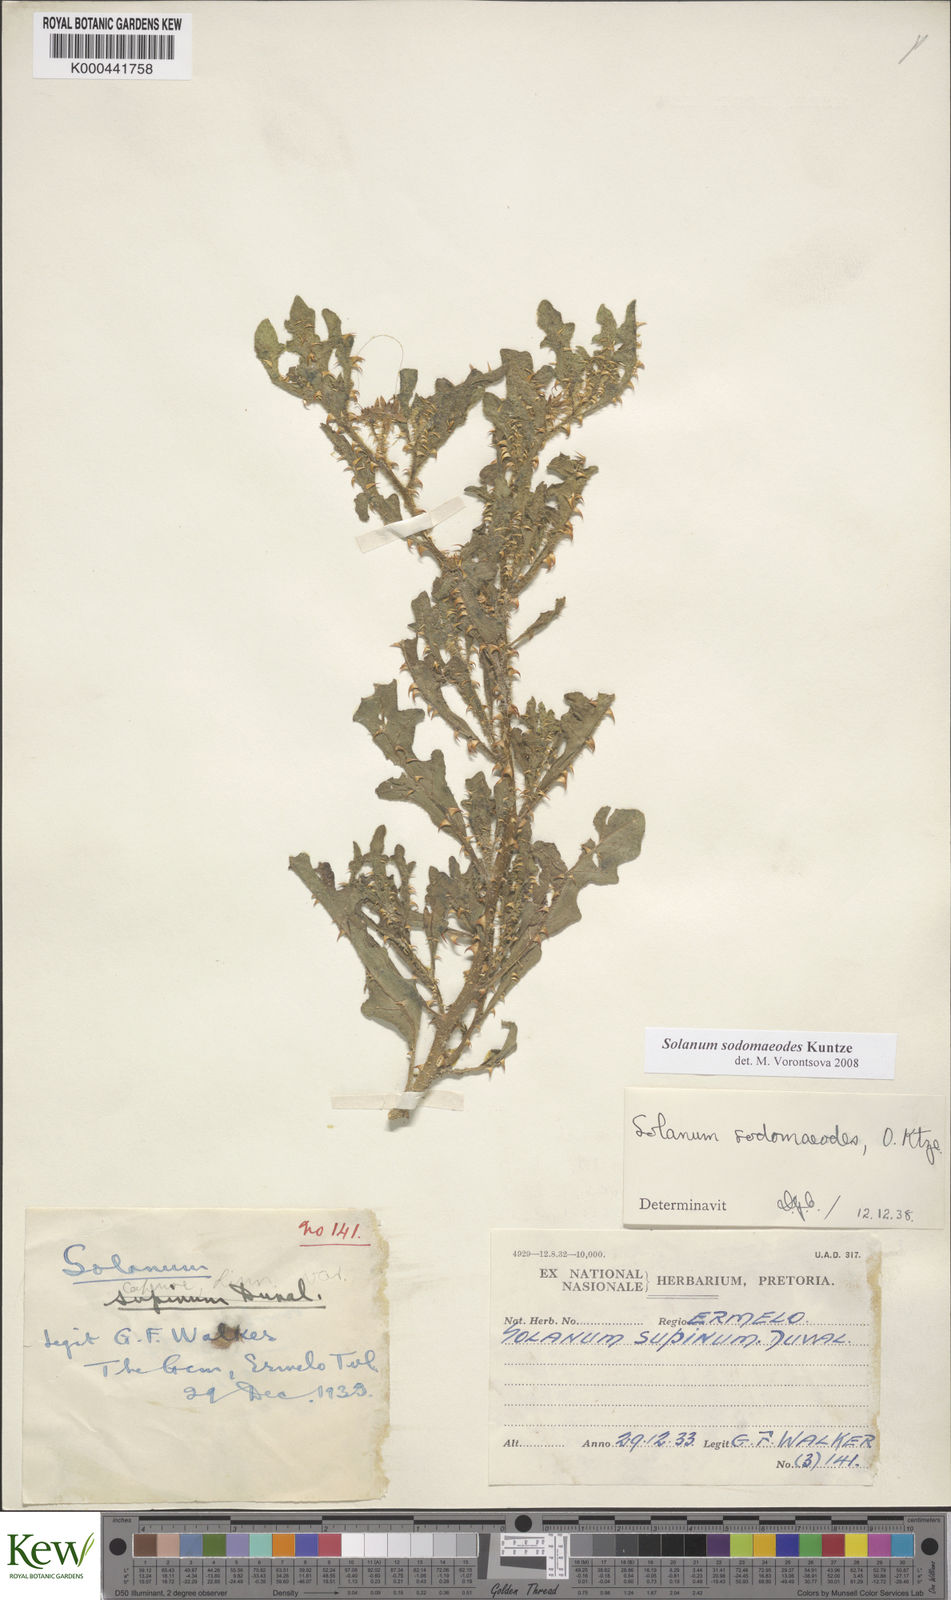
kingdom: Plantae
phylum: Tracheophyta
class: Magnoliopsida
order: Solanales
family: Solanaceae
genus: Solanum
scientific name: Solanum
